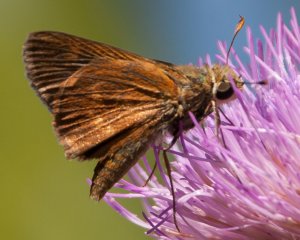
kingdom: Animalia
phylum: Arthropoda
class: Insecta
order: Lepidoptera
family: Hesperiidae
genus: Wallengrenia
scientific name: Wallengrenia otho
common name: Southern Broken-Dash
